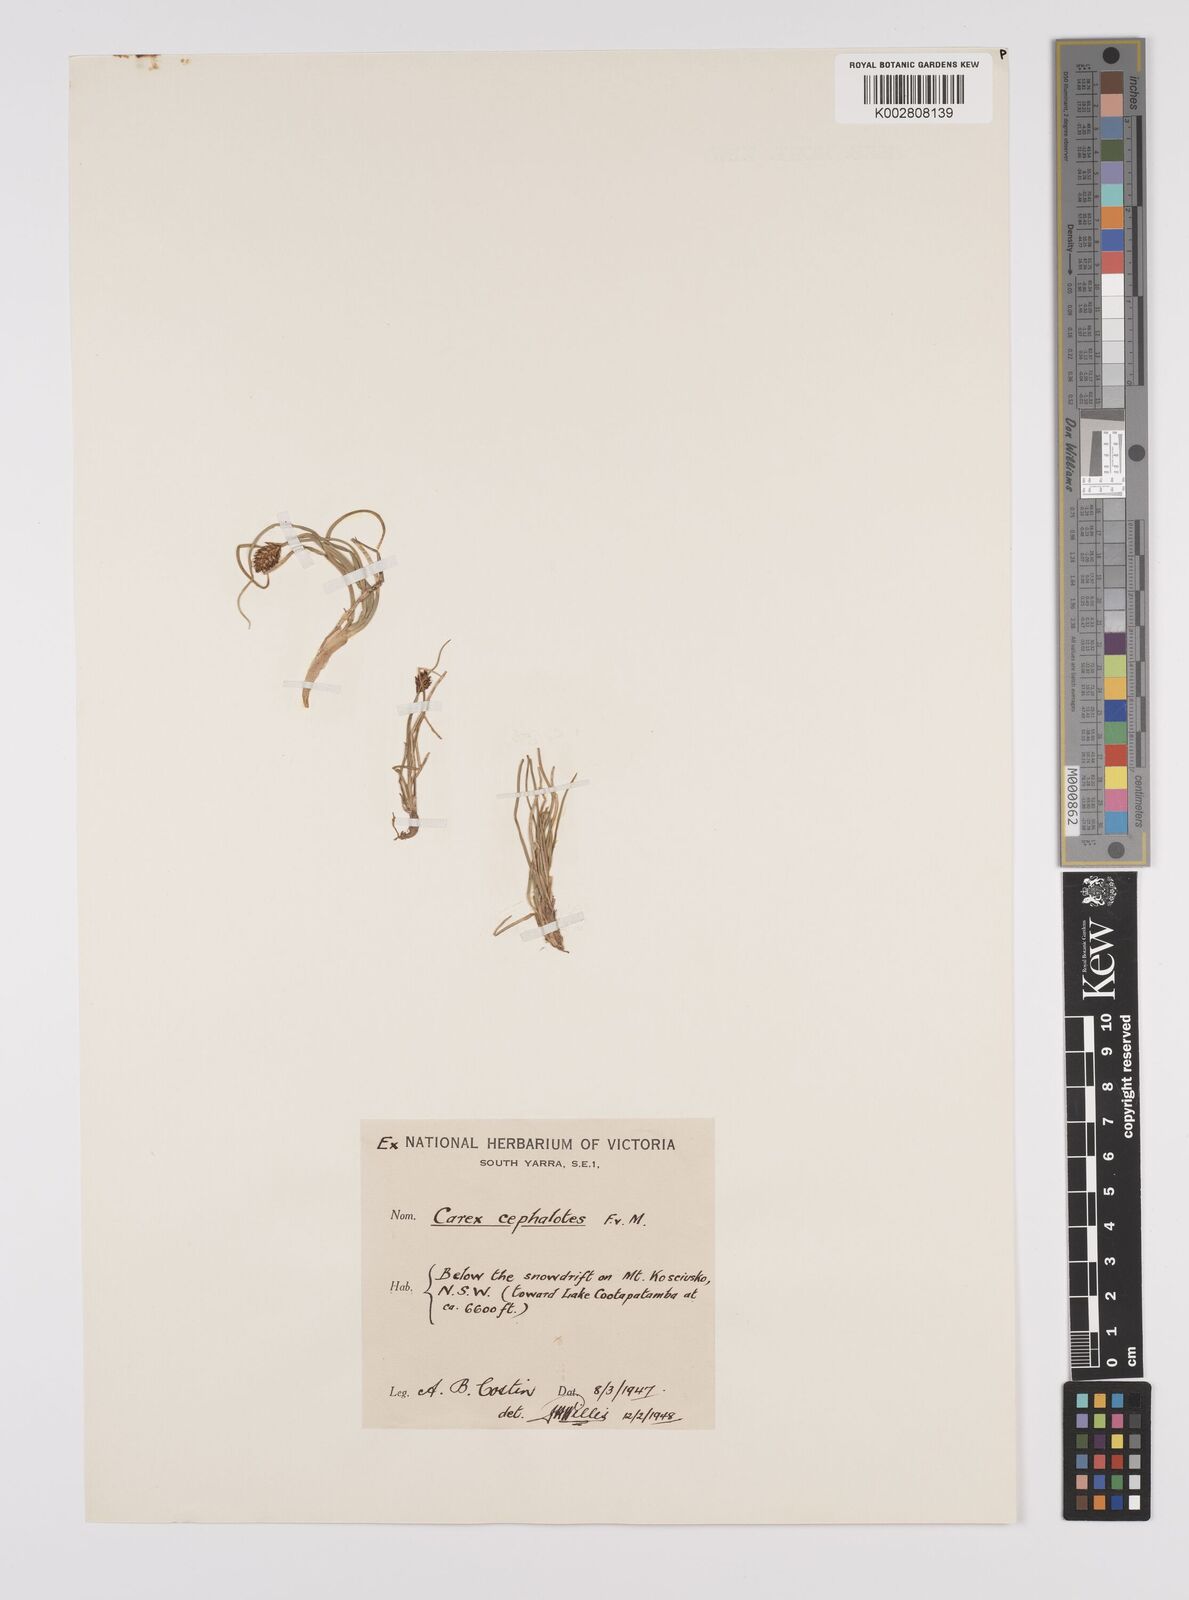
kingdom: Plantae
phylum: Tracheophyta
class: Liliopsida
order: Poales
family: Cyperaceae
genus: Carex
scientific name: Carex cephalotes
